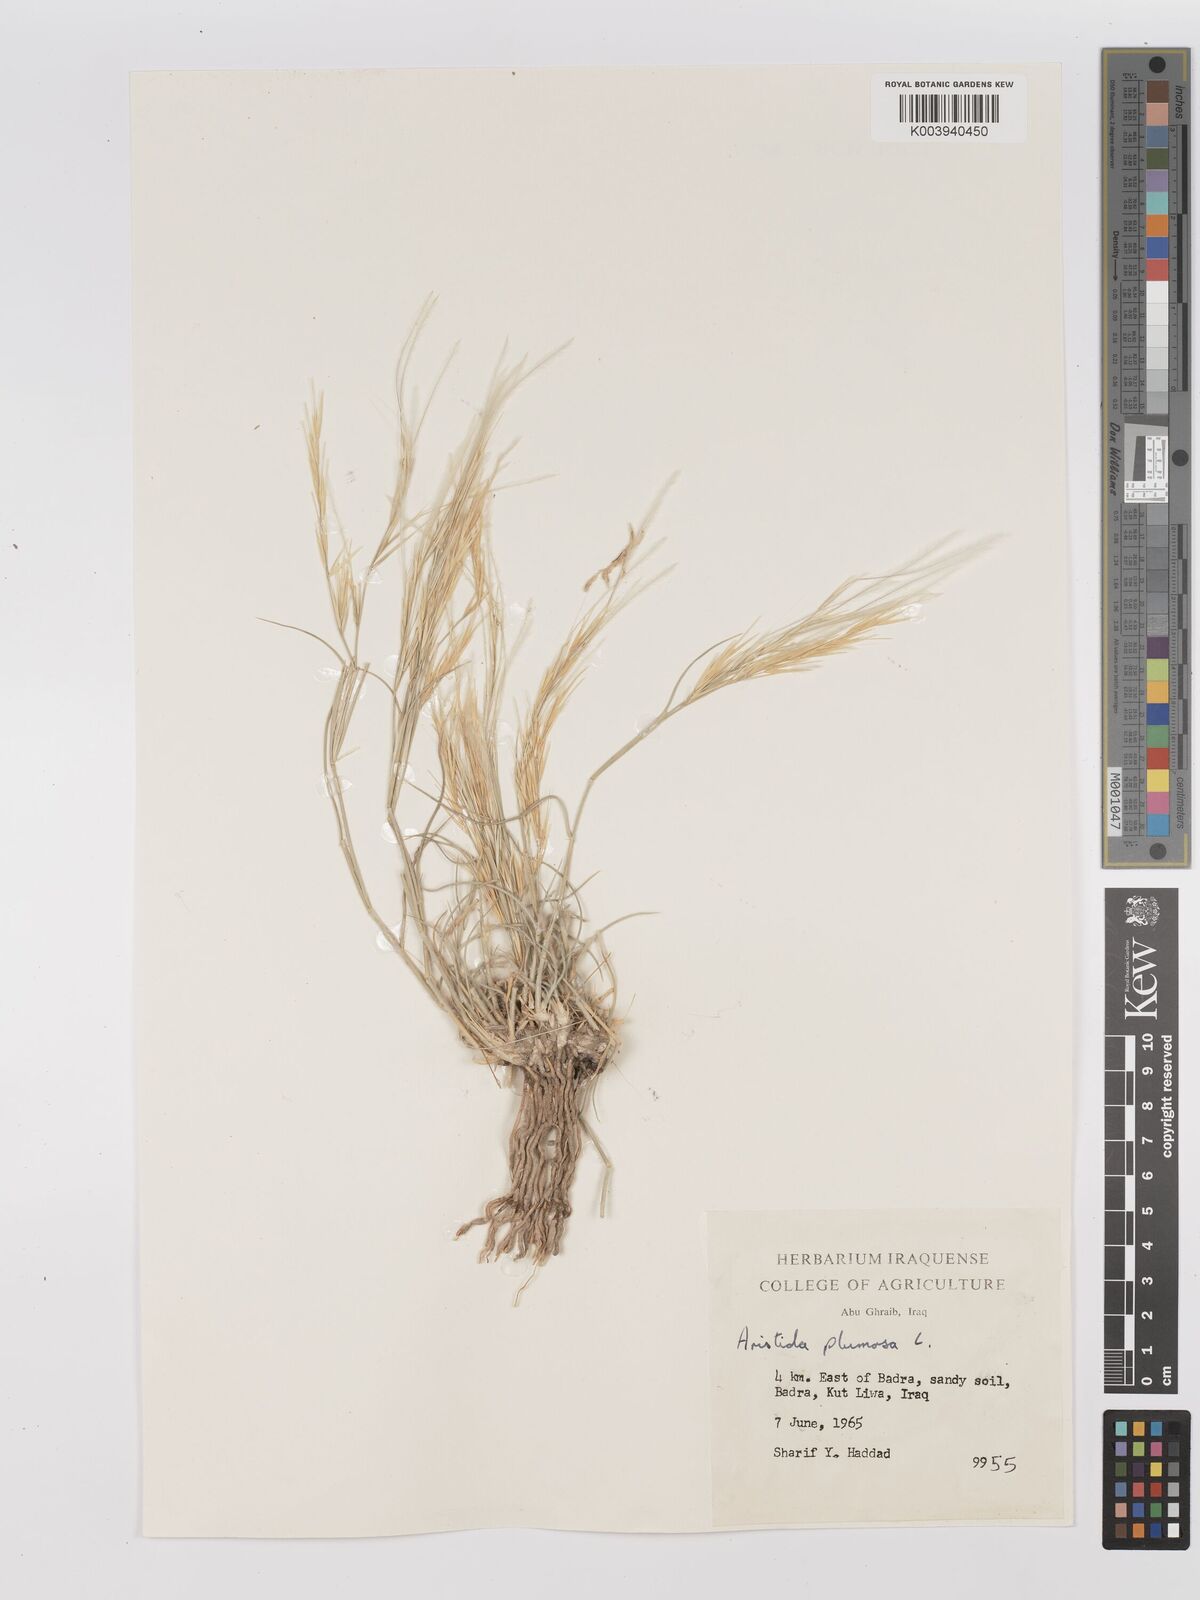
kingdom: Plantae
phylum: Tracheophyta
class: Liliopsida
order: Poales
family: Poaceae
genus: Stipagrostis
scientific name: Stipagrostis plumosa
